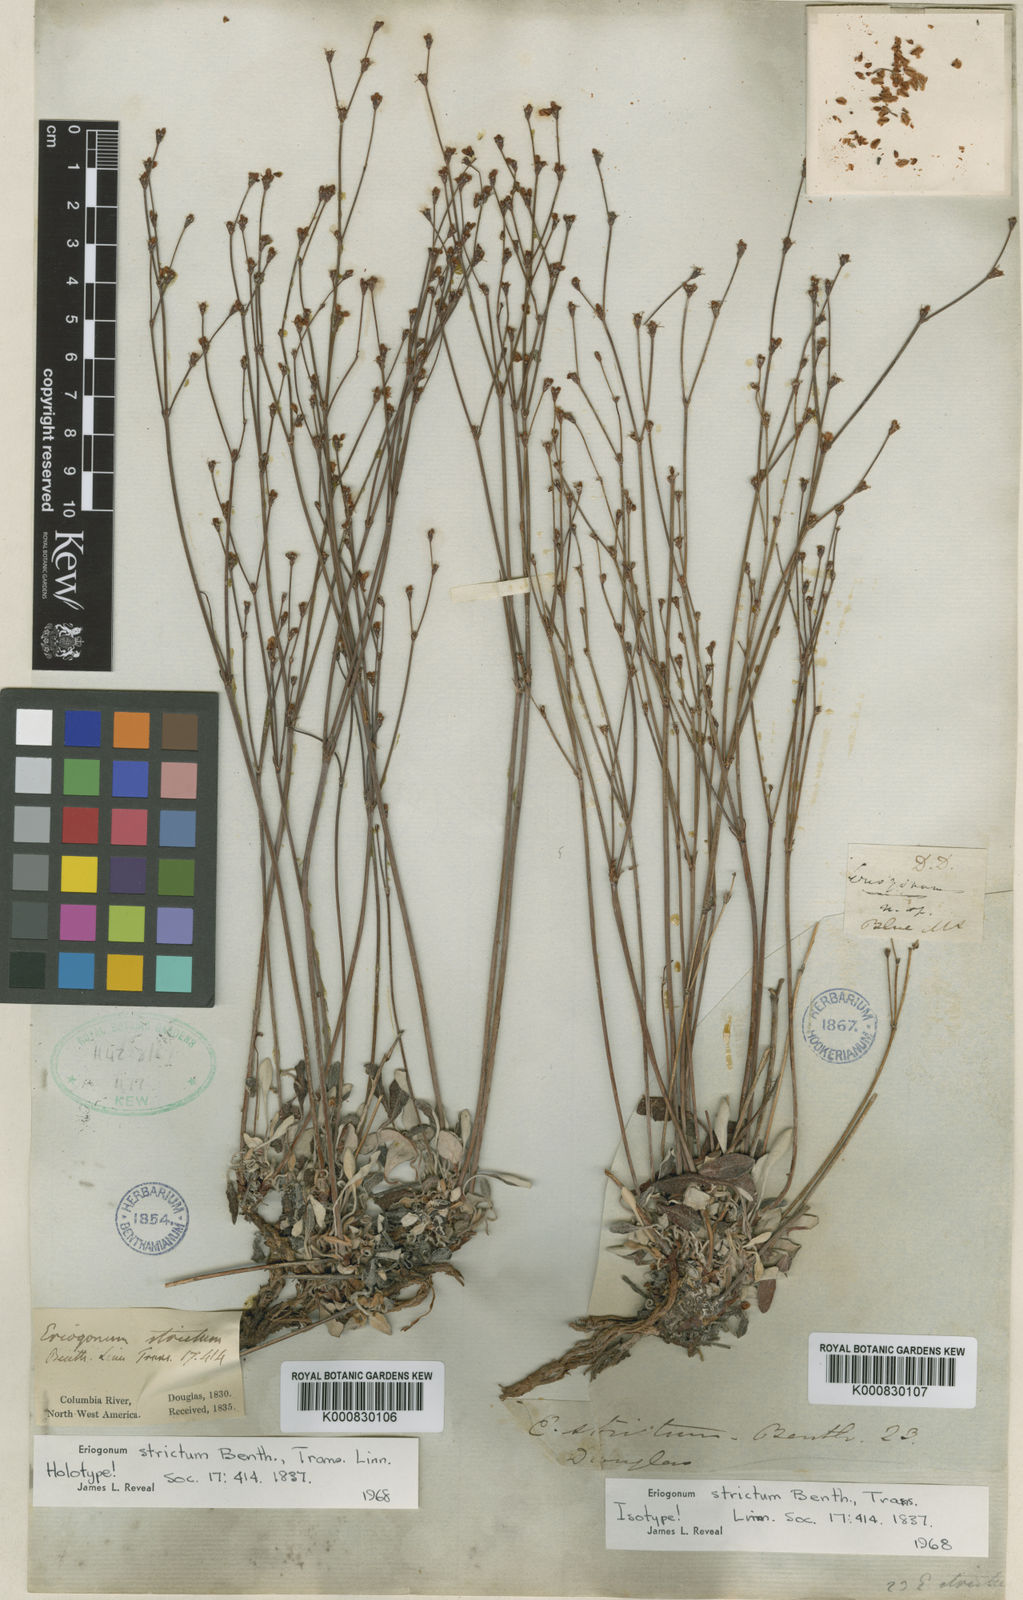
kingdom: Plantae
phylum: Tracheophyta
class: Magnoliopsida
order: Caryophyllales
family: Polygonaceae
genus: Eriogonum
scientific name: Eriogonum strictum
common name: Blue mountain buckwheat
